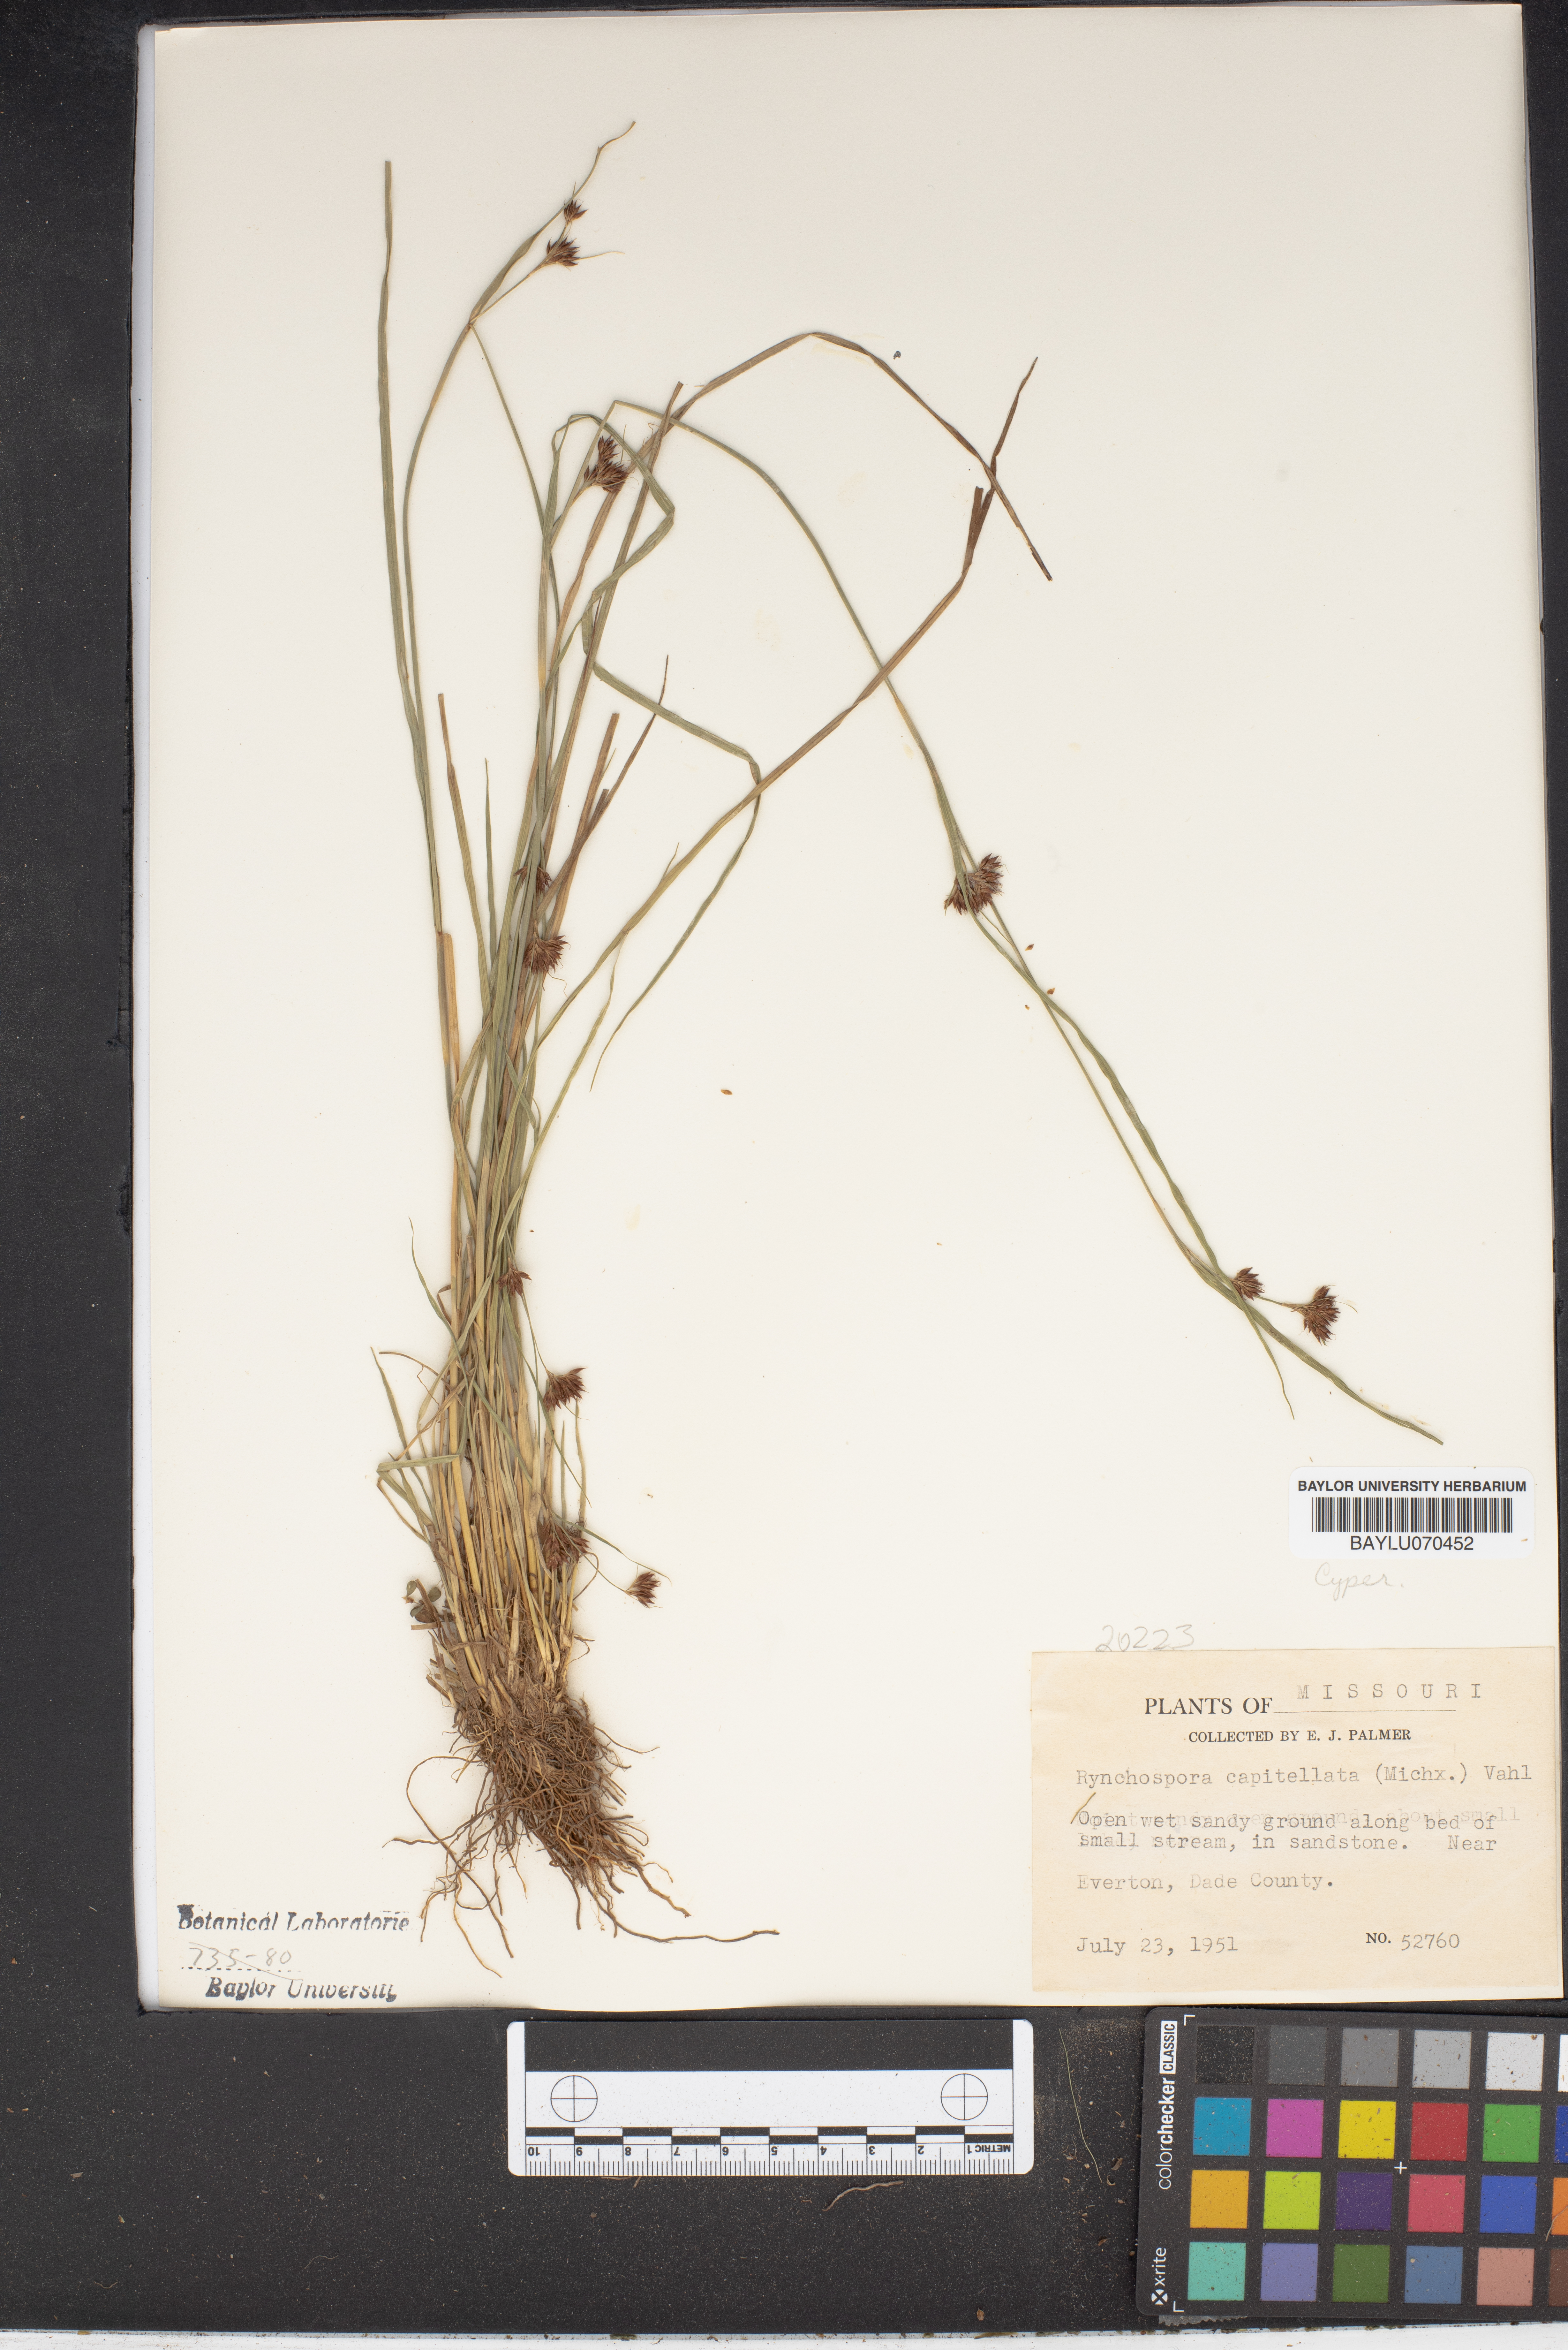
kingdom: Plantae
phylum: Tracheophyta
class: Liliopsida
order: Poales
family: Cyperaceae
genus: Rhynchospora
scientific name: Rhynchospora capitellata
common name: Brownish beaksedge
